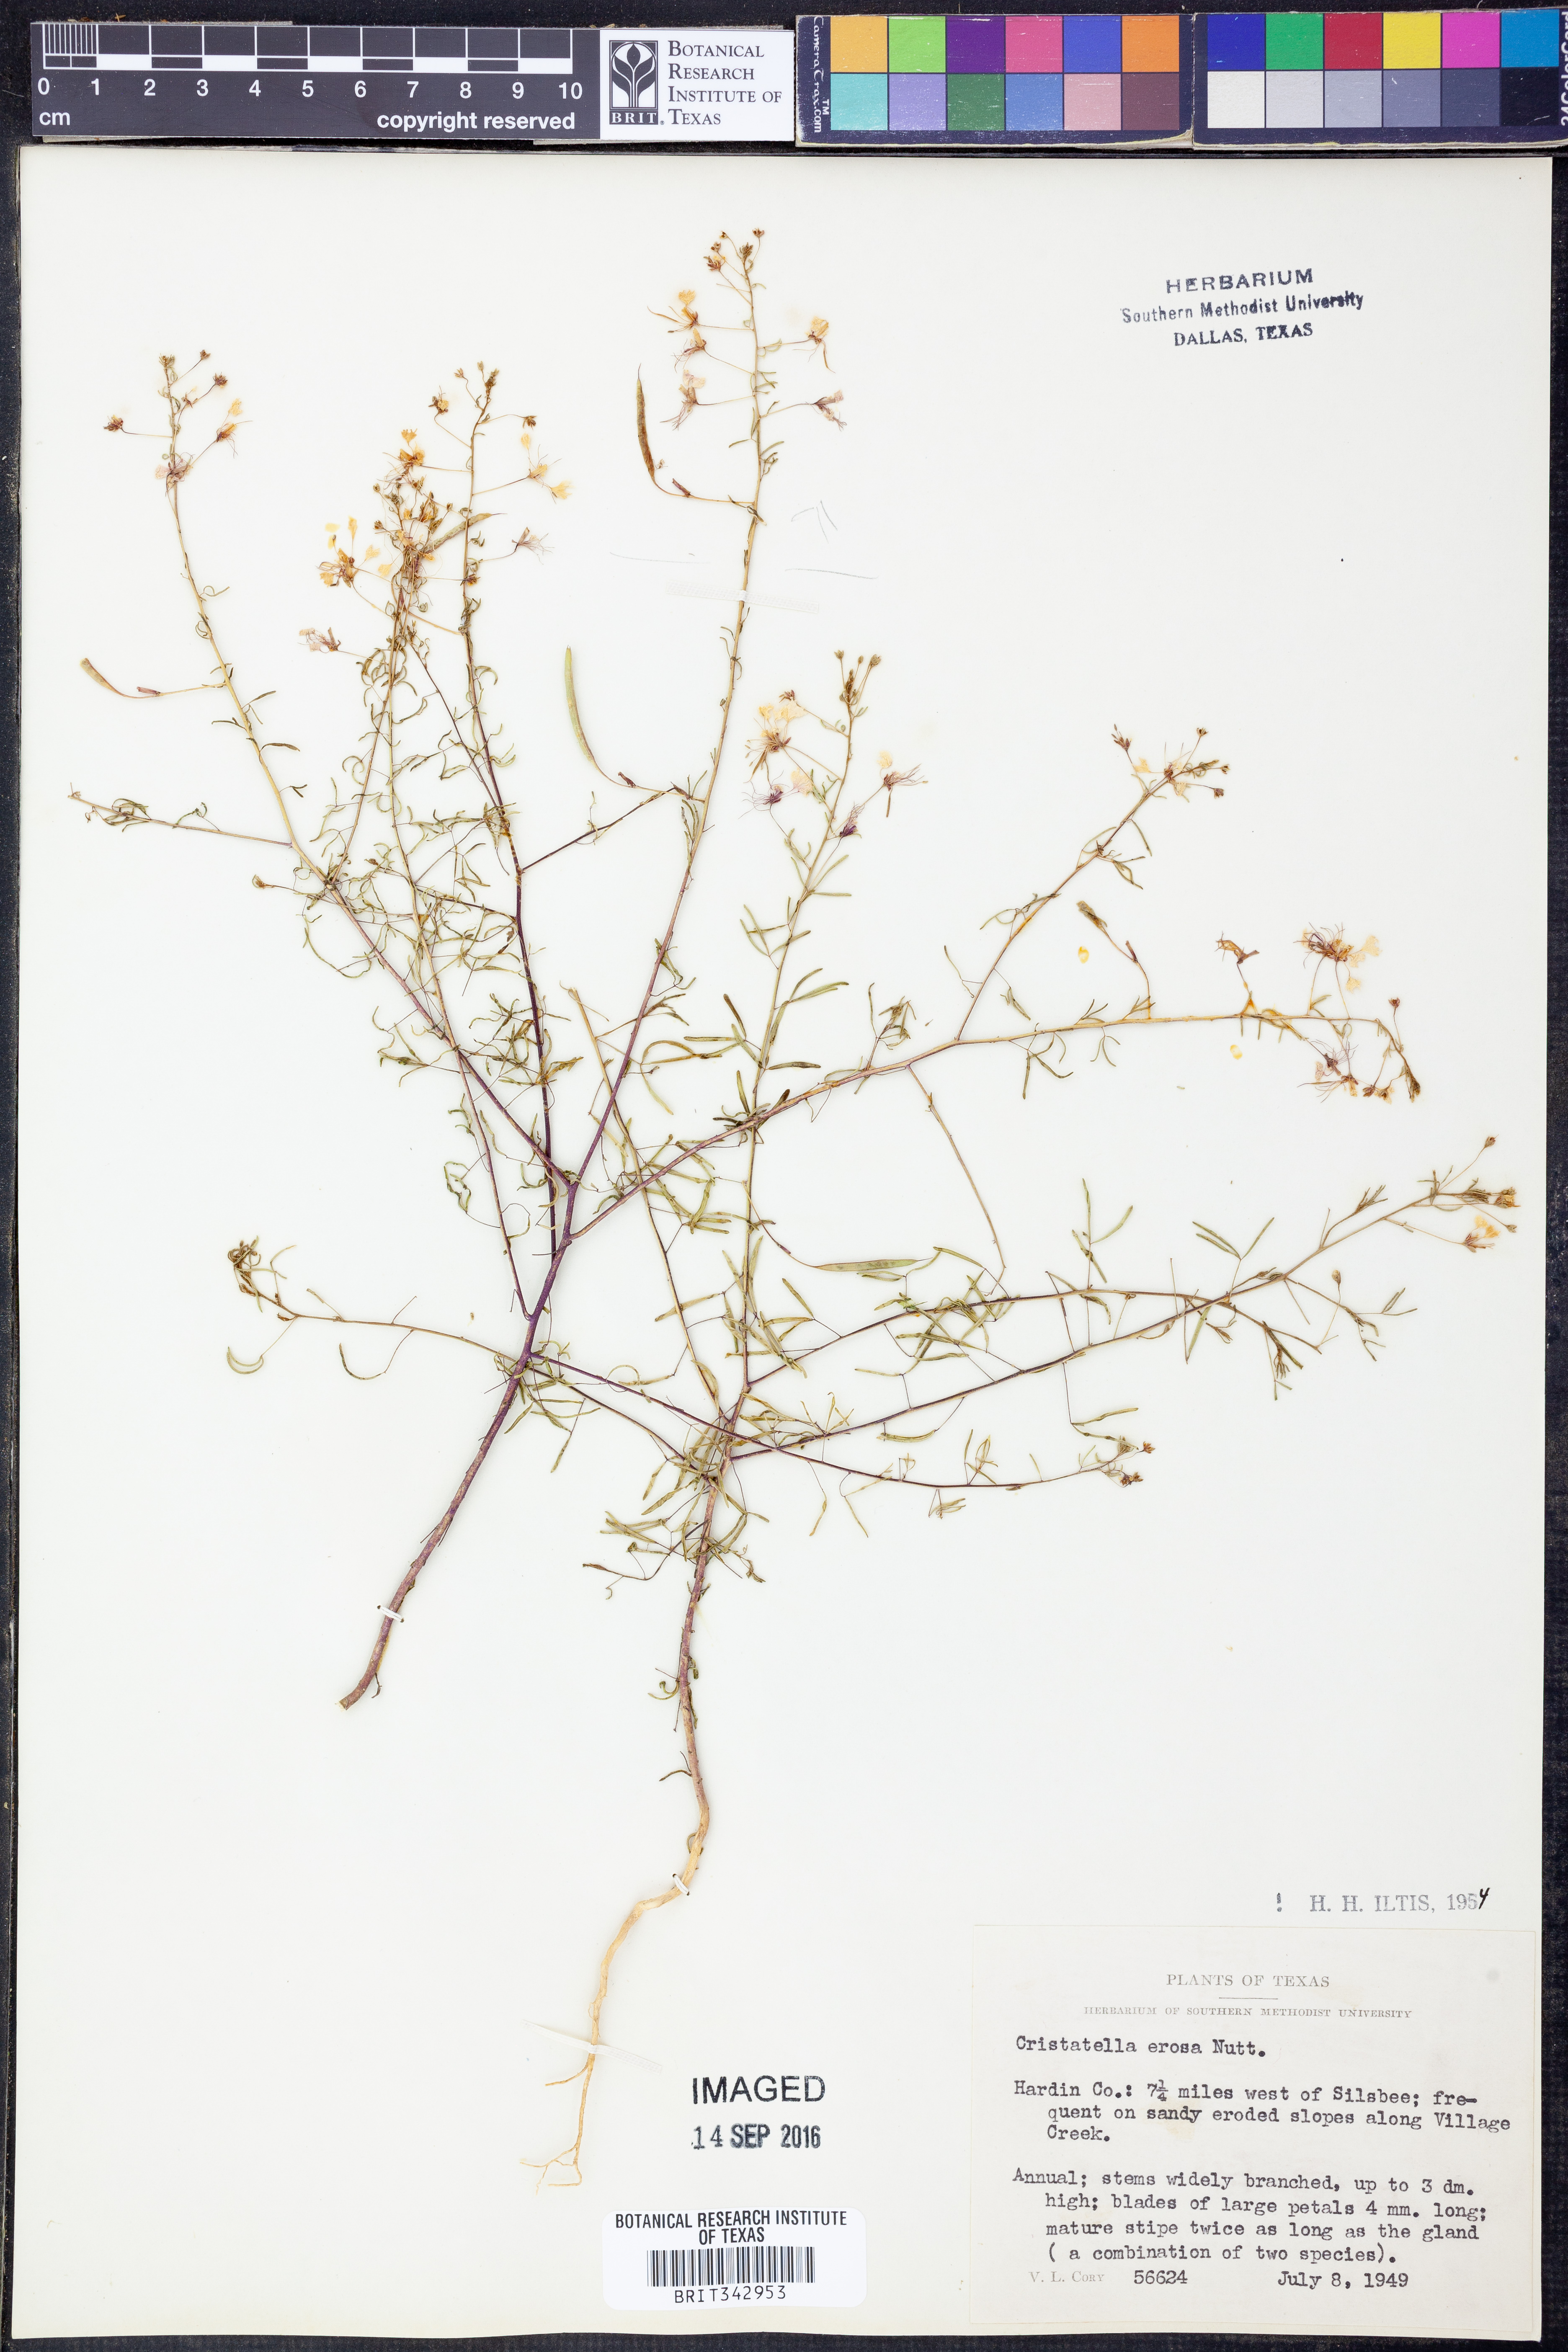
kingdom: Plantae
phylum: Tracheophyta
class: Magnoliopsida
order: Brassicales
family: Cleomaceae
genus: Polanisia
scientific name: Polanisia erosa
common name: Large clammyweed
